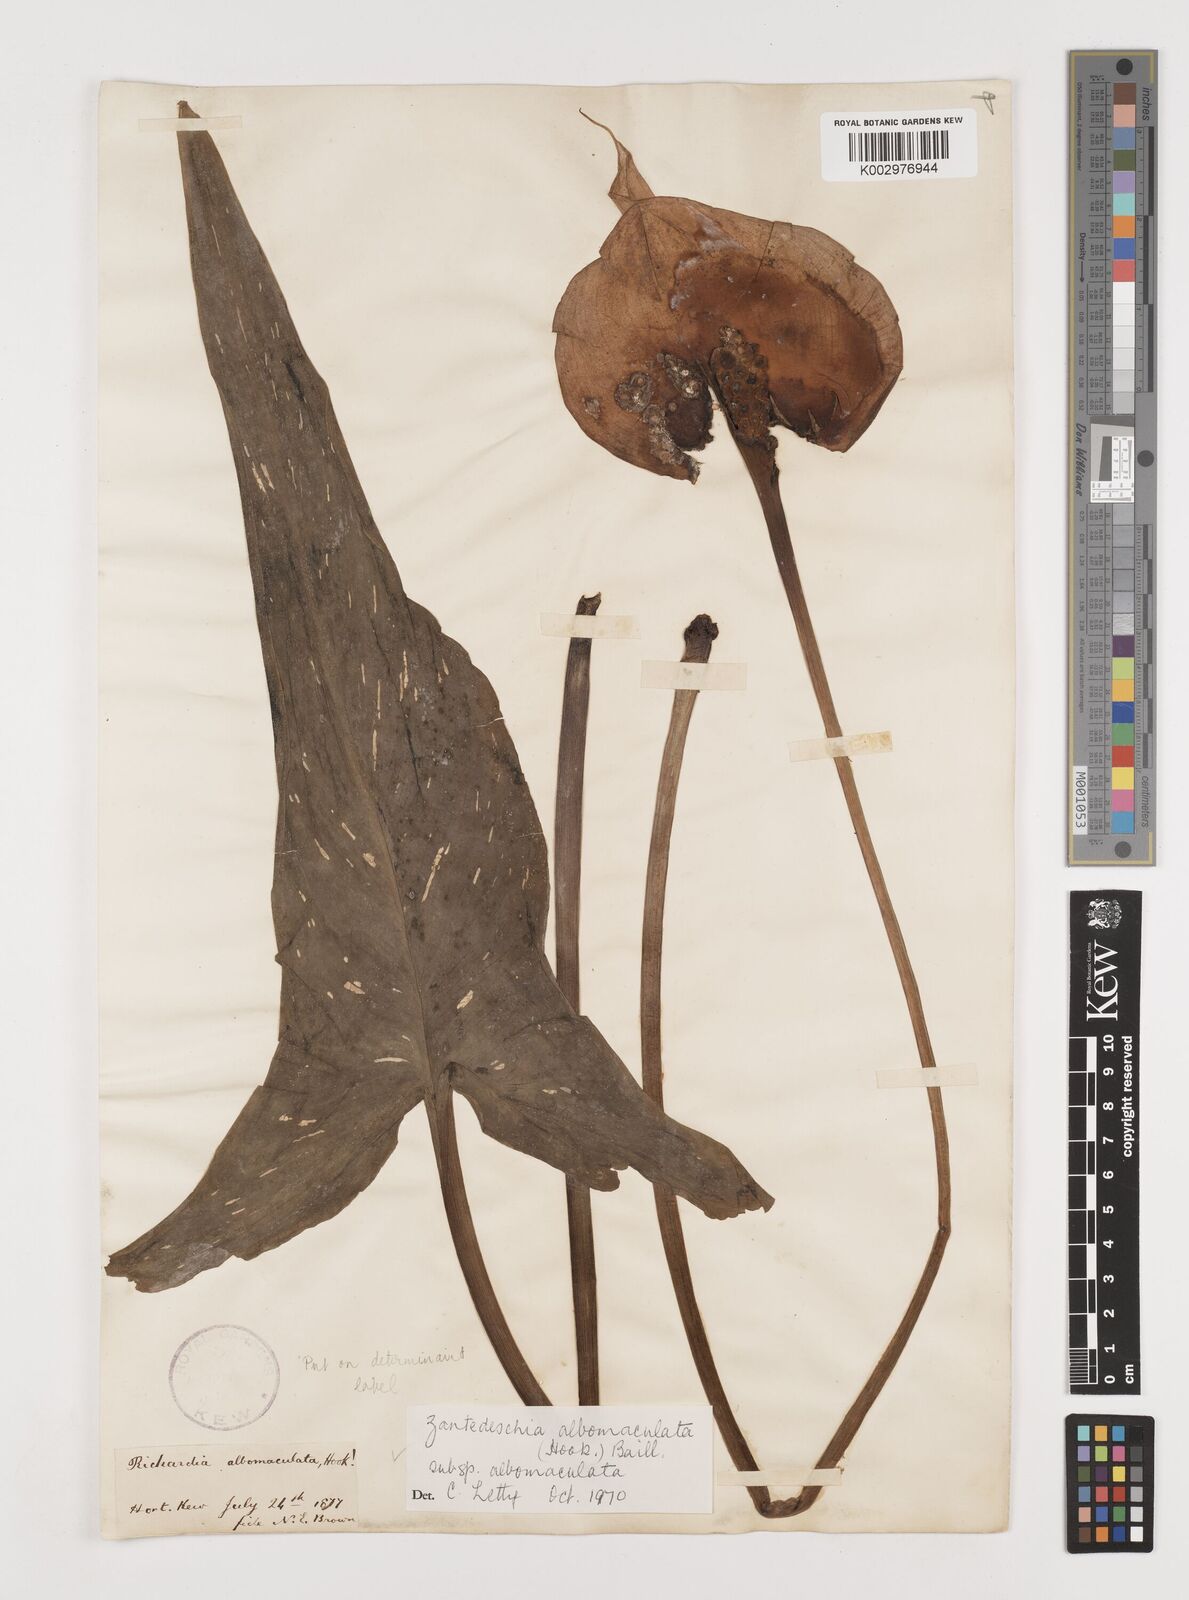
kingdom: Plantae
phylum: Tracheophyta
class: Liliopsida
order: Alismatales
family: Araceae
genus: Zantedeschia
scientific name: Zantedeschia albomaculata
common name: Spotted calla lily
